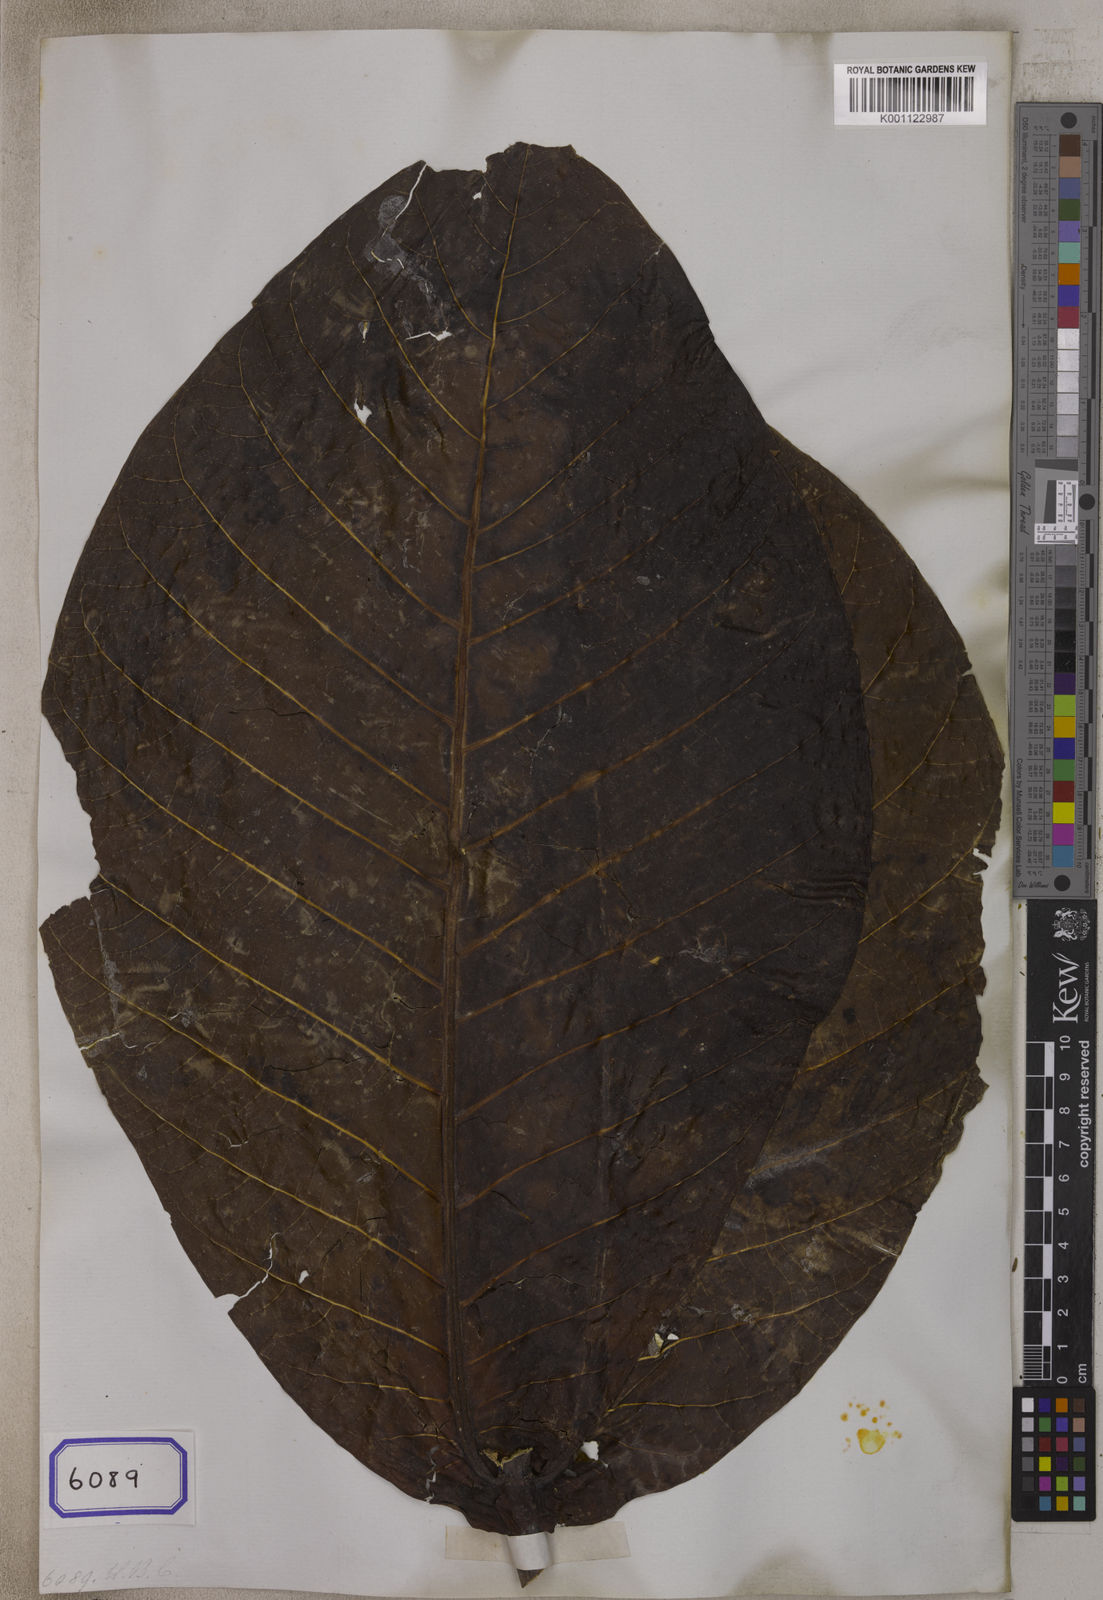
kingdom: Plantae
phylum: Tracheophyta
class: Magnoliopsida
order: Gentianales
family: Rubiaceae
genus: Neolamarckia
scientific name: Neolamarckia macrophylla
